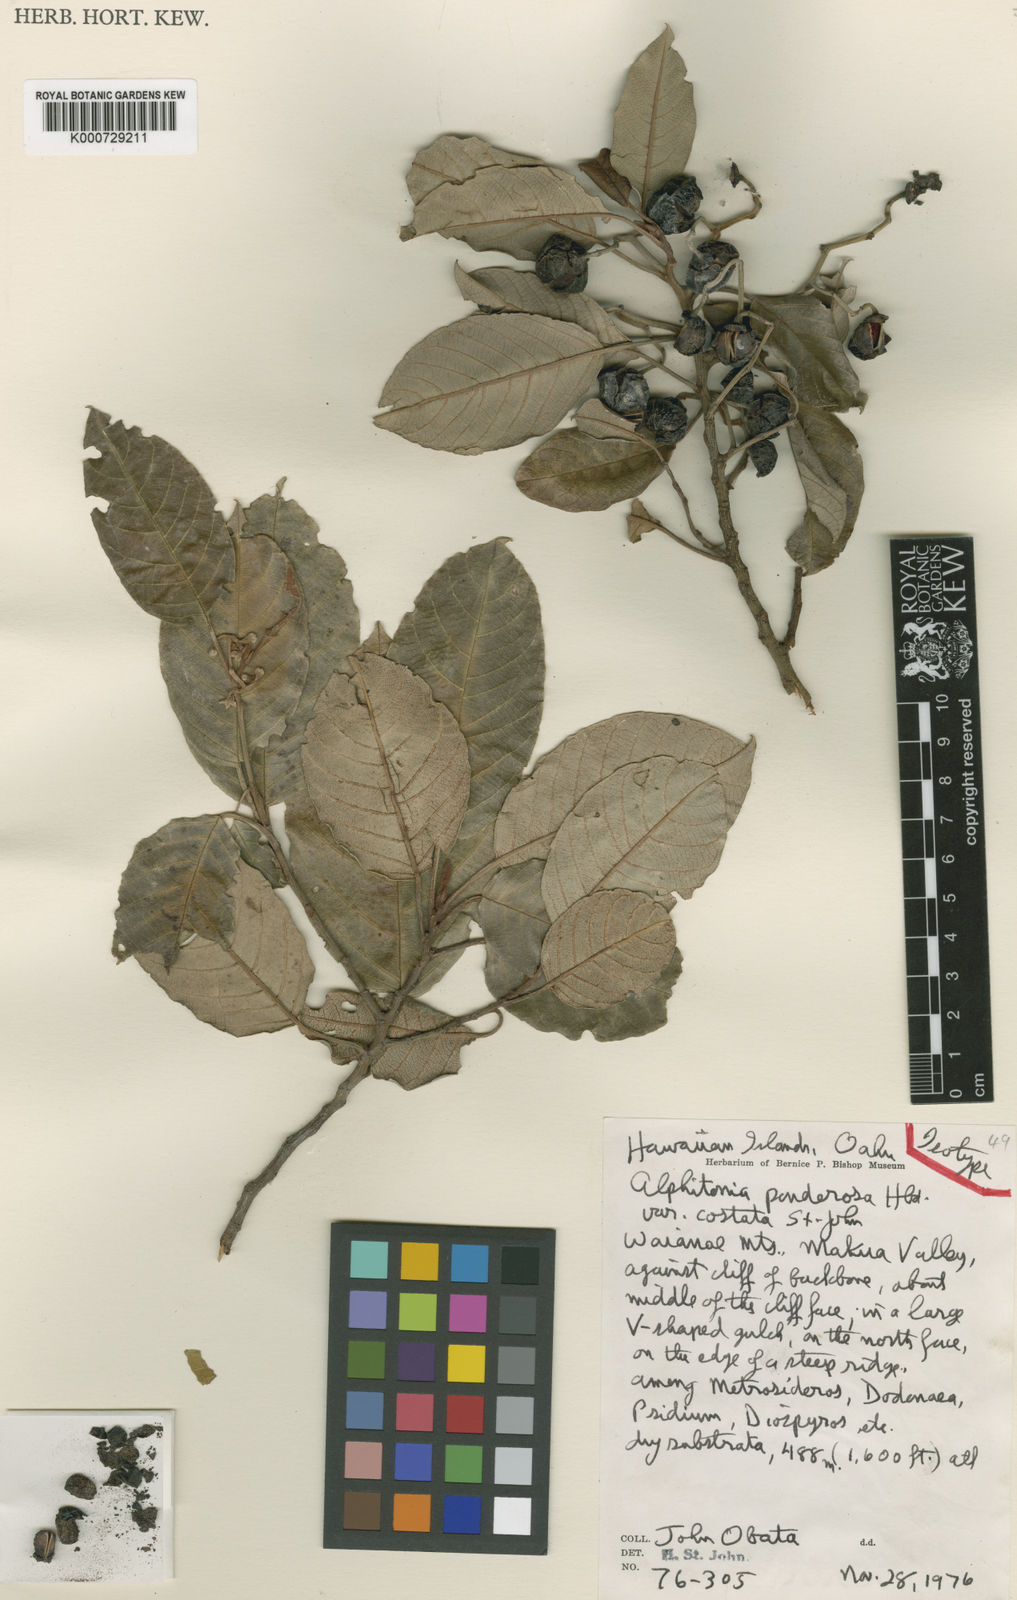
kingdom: Plantae
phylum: Tracheophyta
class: Magnoliopsida
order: Rosales
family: Rhamnaceae
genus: Alphitonia
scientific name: Alphitonia ponderosa
